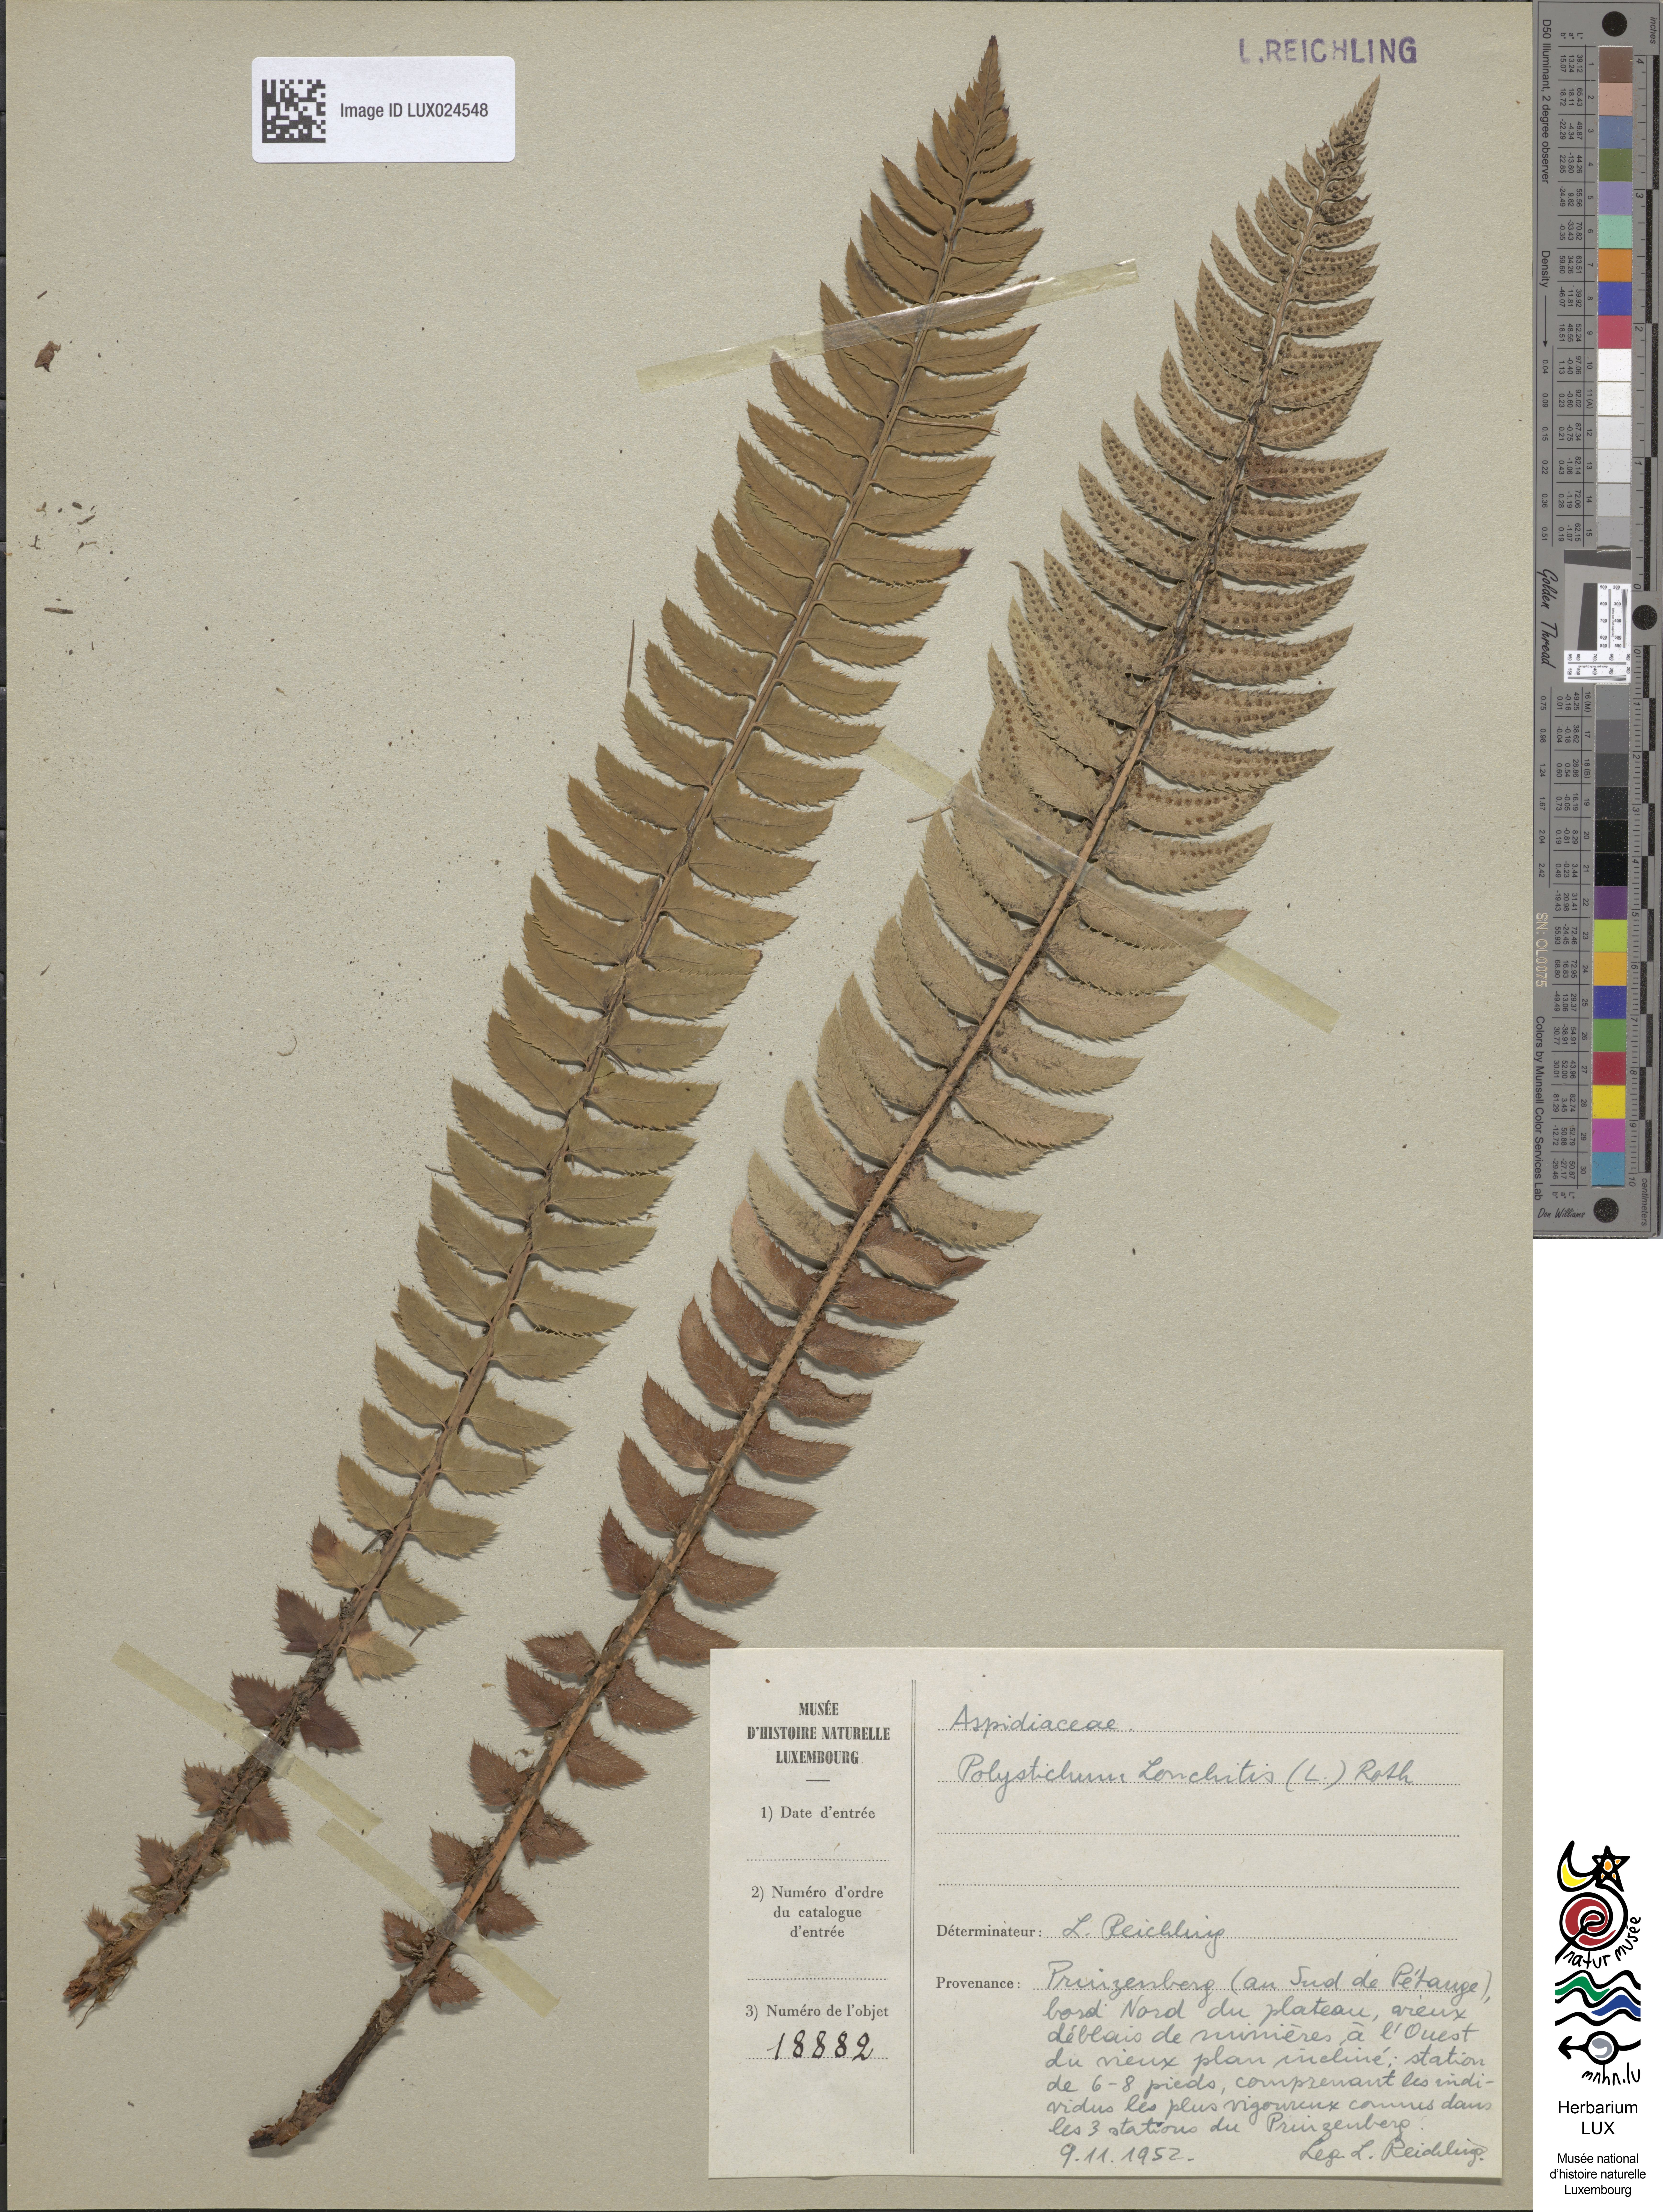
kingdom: Plantae
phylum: Tracheophyta
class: Polypodiopsida
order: Polypodiales
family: Dryopteridaceae
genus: Polystichum
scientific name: Polystichum lonchitis
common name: Holly fern
